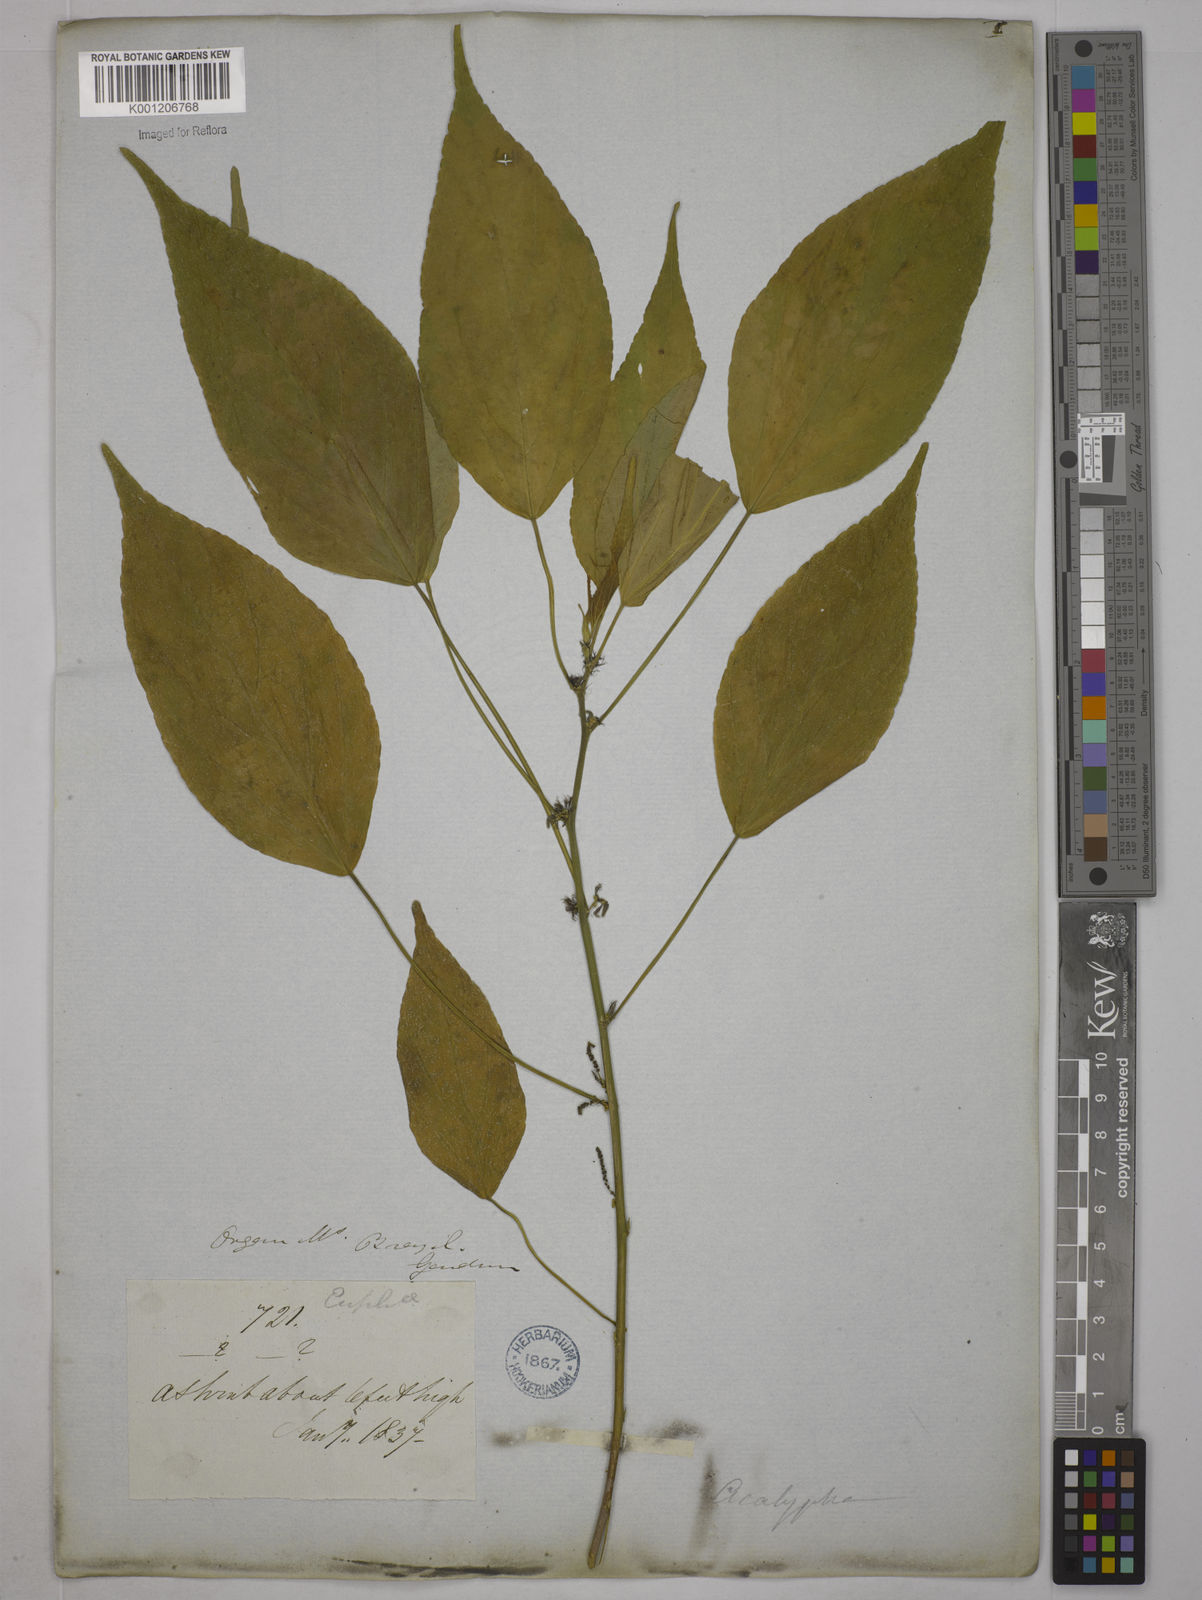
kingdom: Plantae
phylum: Tracheophyta
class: Magnoliopsida
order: Malpighiales
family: Euphorbiaceae
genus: Acalypha
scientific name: Acalypha
